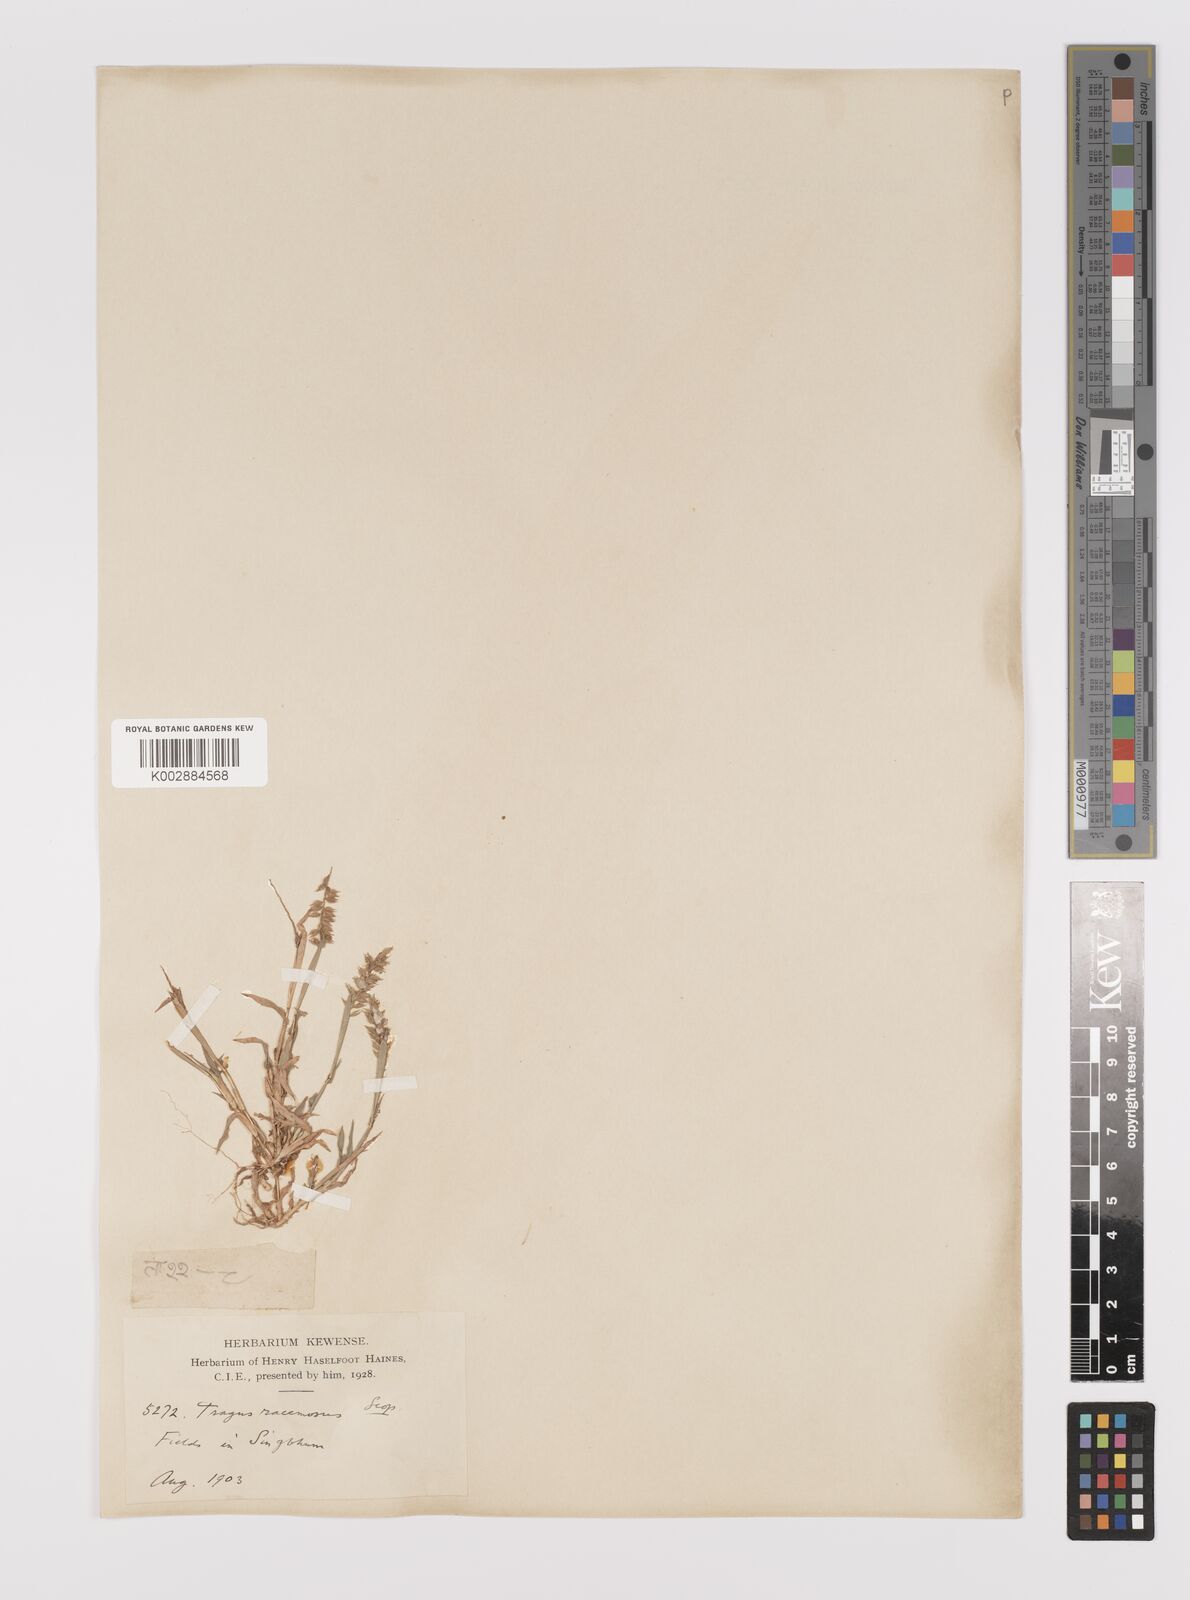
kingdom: Plantae
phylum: Tracheophyta
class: Liliopsida
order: Poales
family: Poaceae
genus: Tragus
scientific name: Tragus mongolorum
